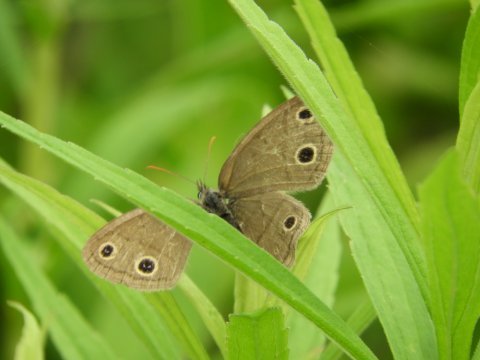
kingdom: Animalia
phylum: Arthropoda
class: Insecta
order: Lepidoptera
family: Nymphalidae
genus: Euptychia
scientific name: Euptychia cymela
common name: Little Wood Satyr
